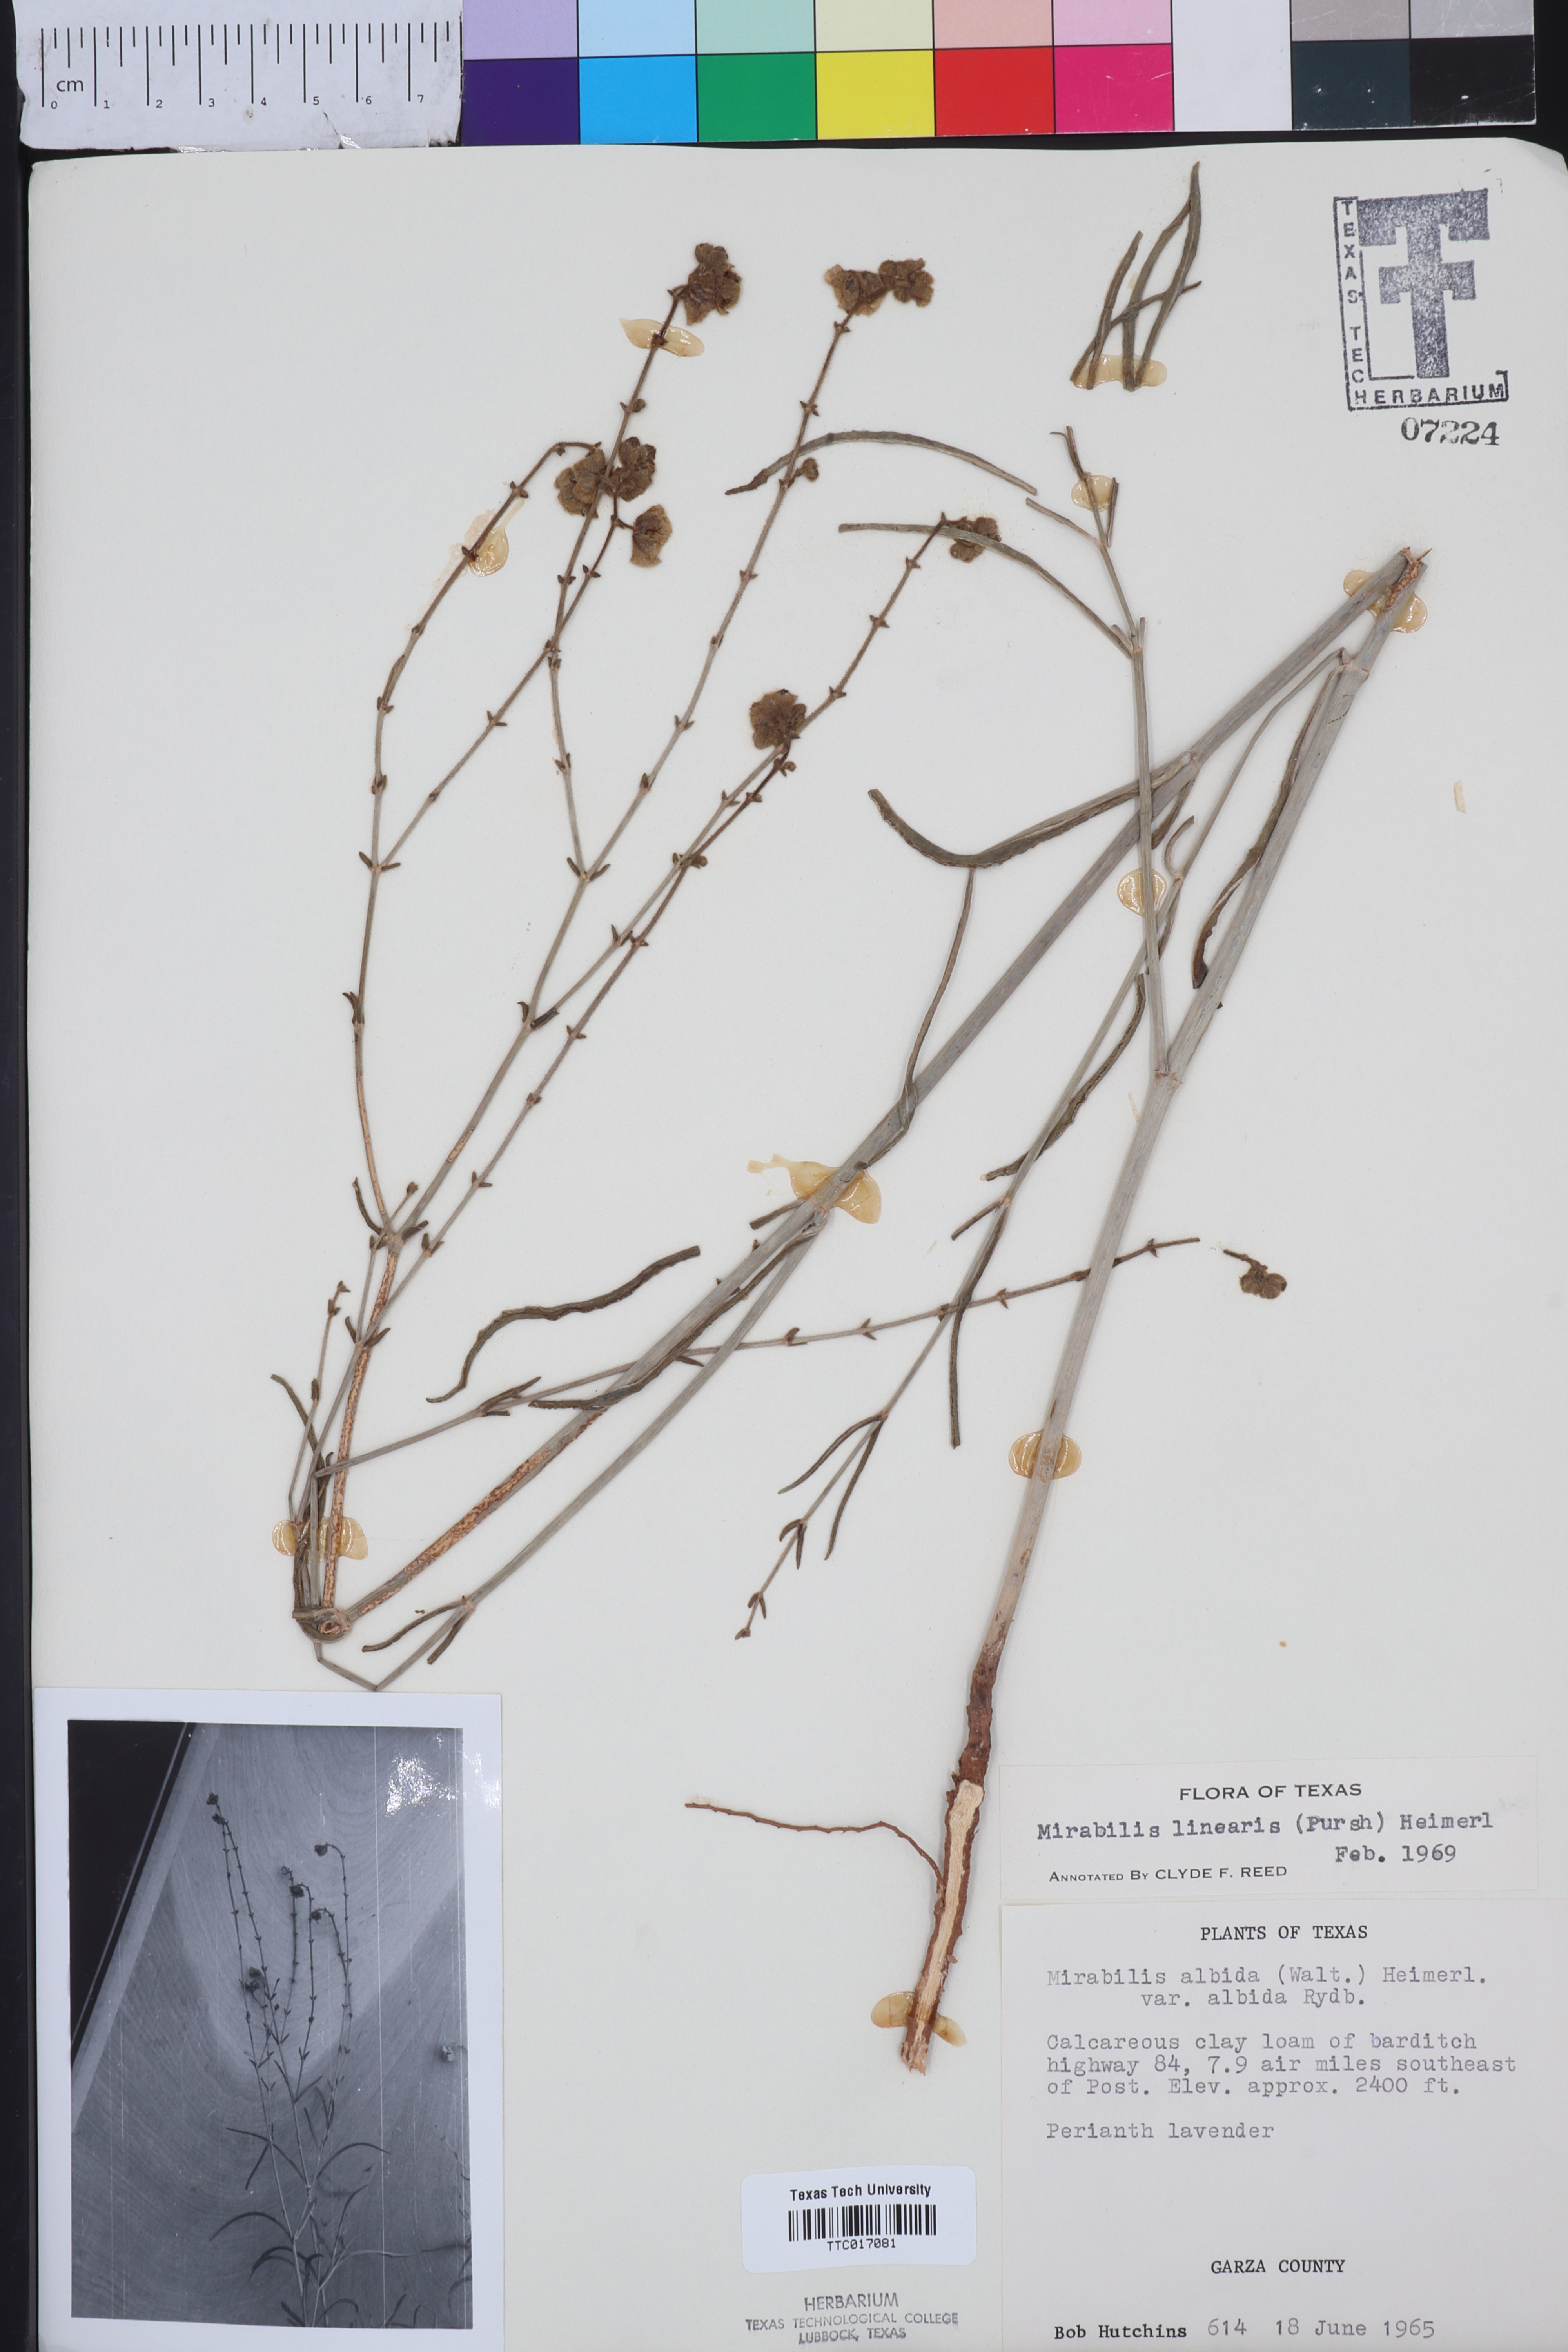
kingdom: Plantae
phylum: Tracheophyta
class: Magnoliopsida
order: Caryophyllales
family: Nyctaginaceae
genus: Mirabilis
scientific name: Mirabilis linearis
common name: Linear-leaved four-o'clock
